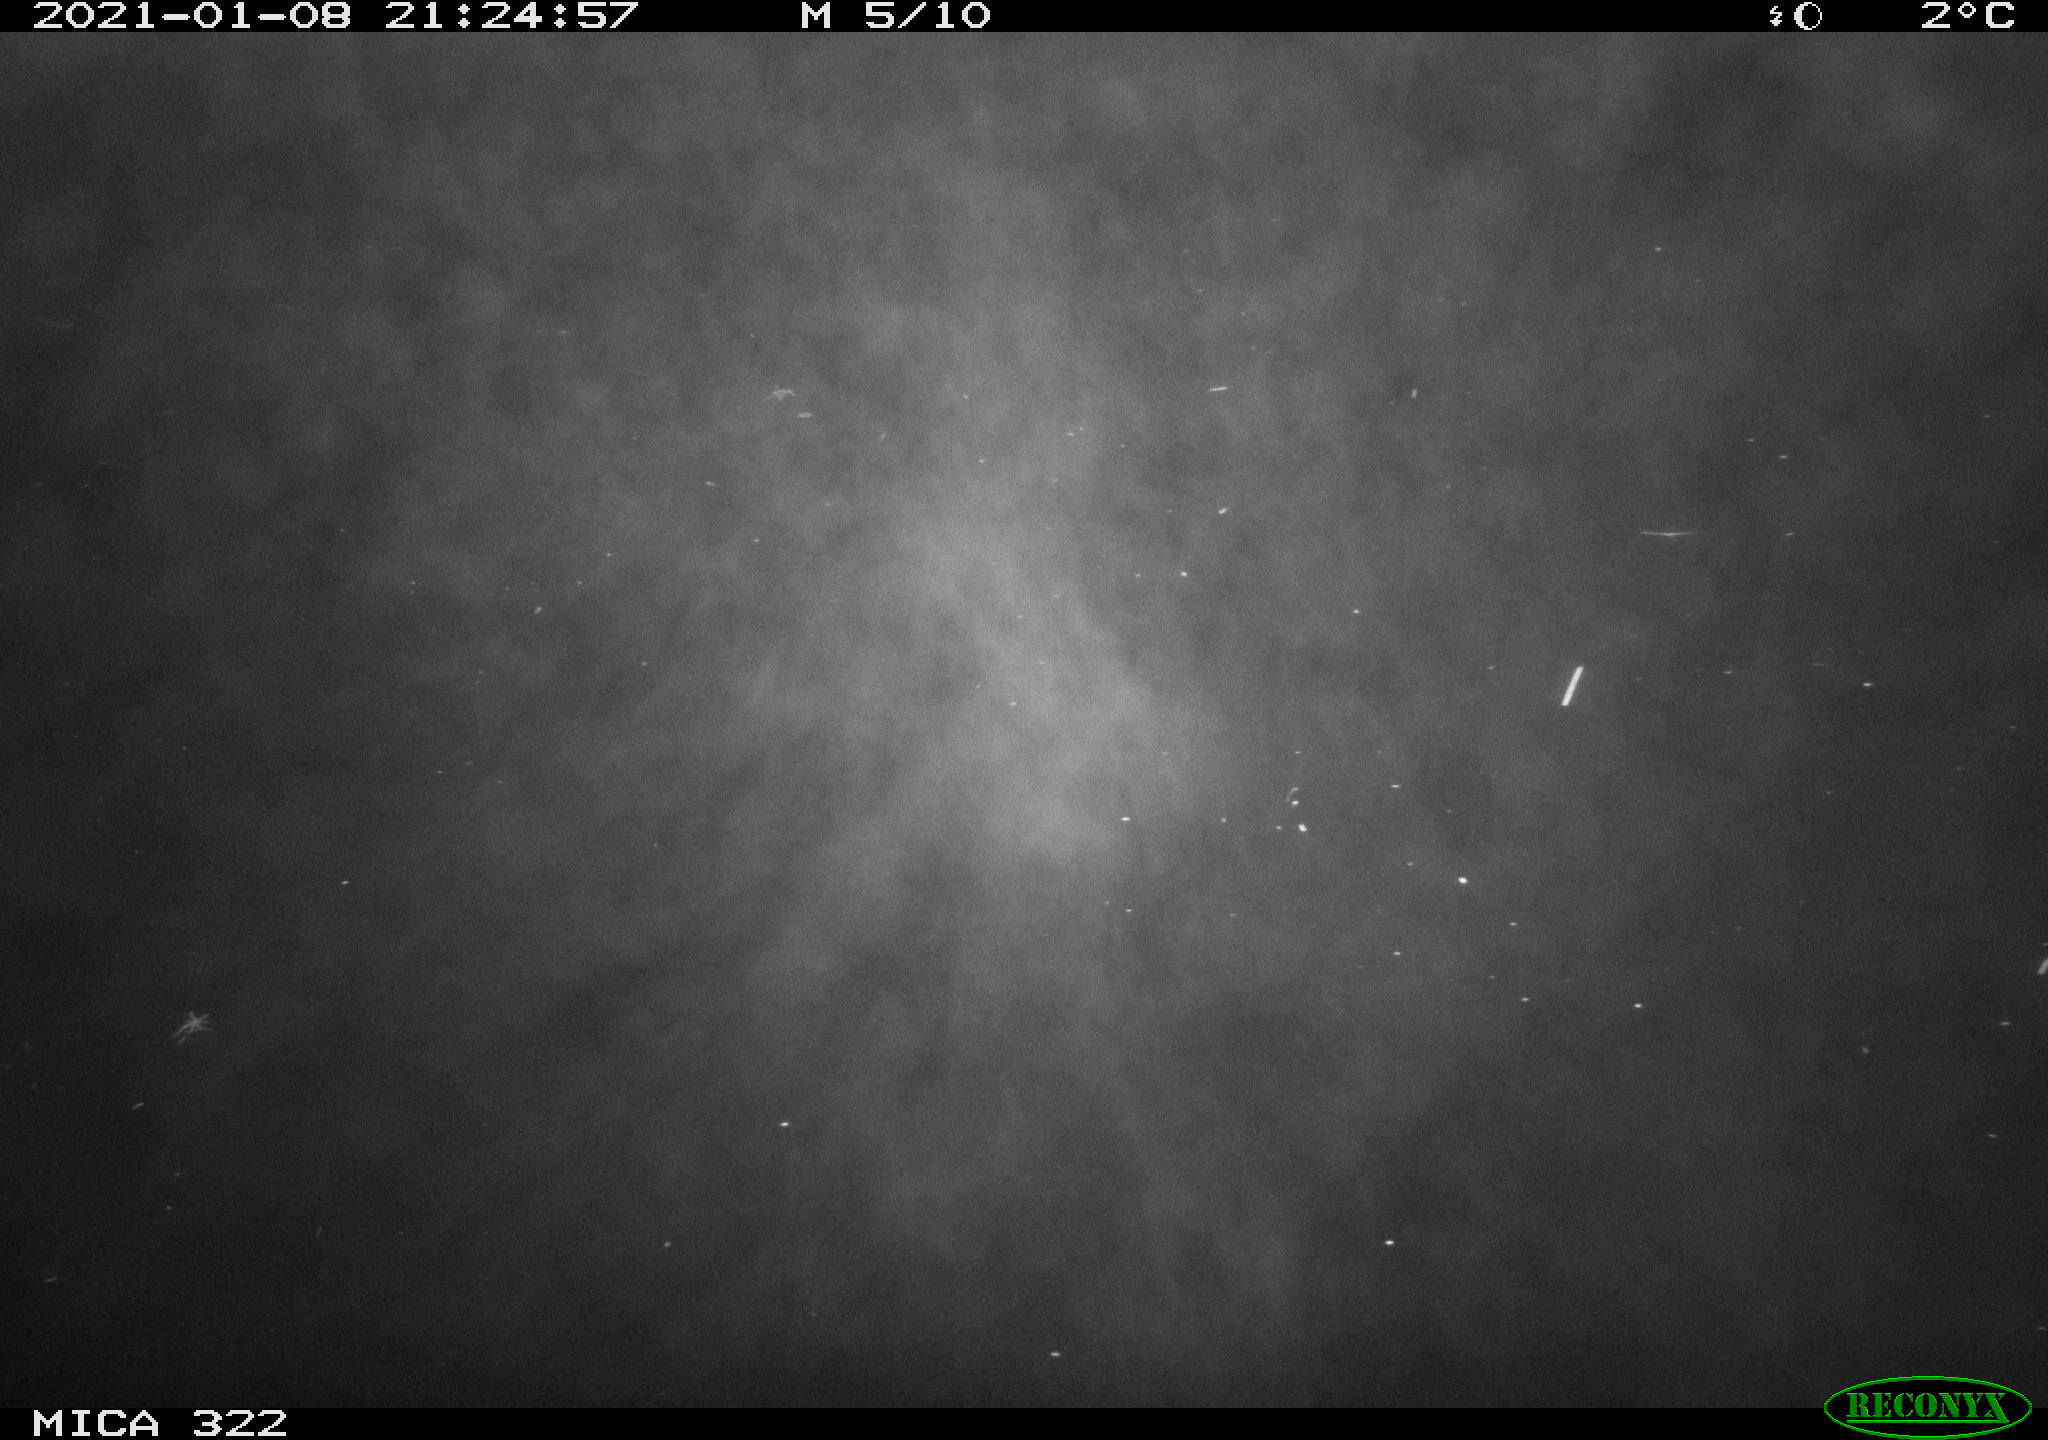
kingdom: Animalia
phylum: Chordata
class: Mammalia
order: Rodentia
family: Muridae
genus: Rattus
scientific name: Rattus norvegicus
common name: Brown rat
